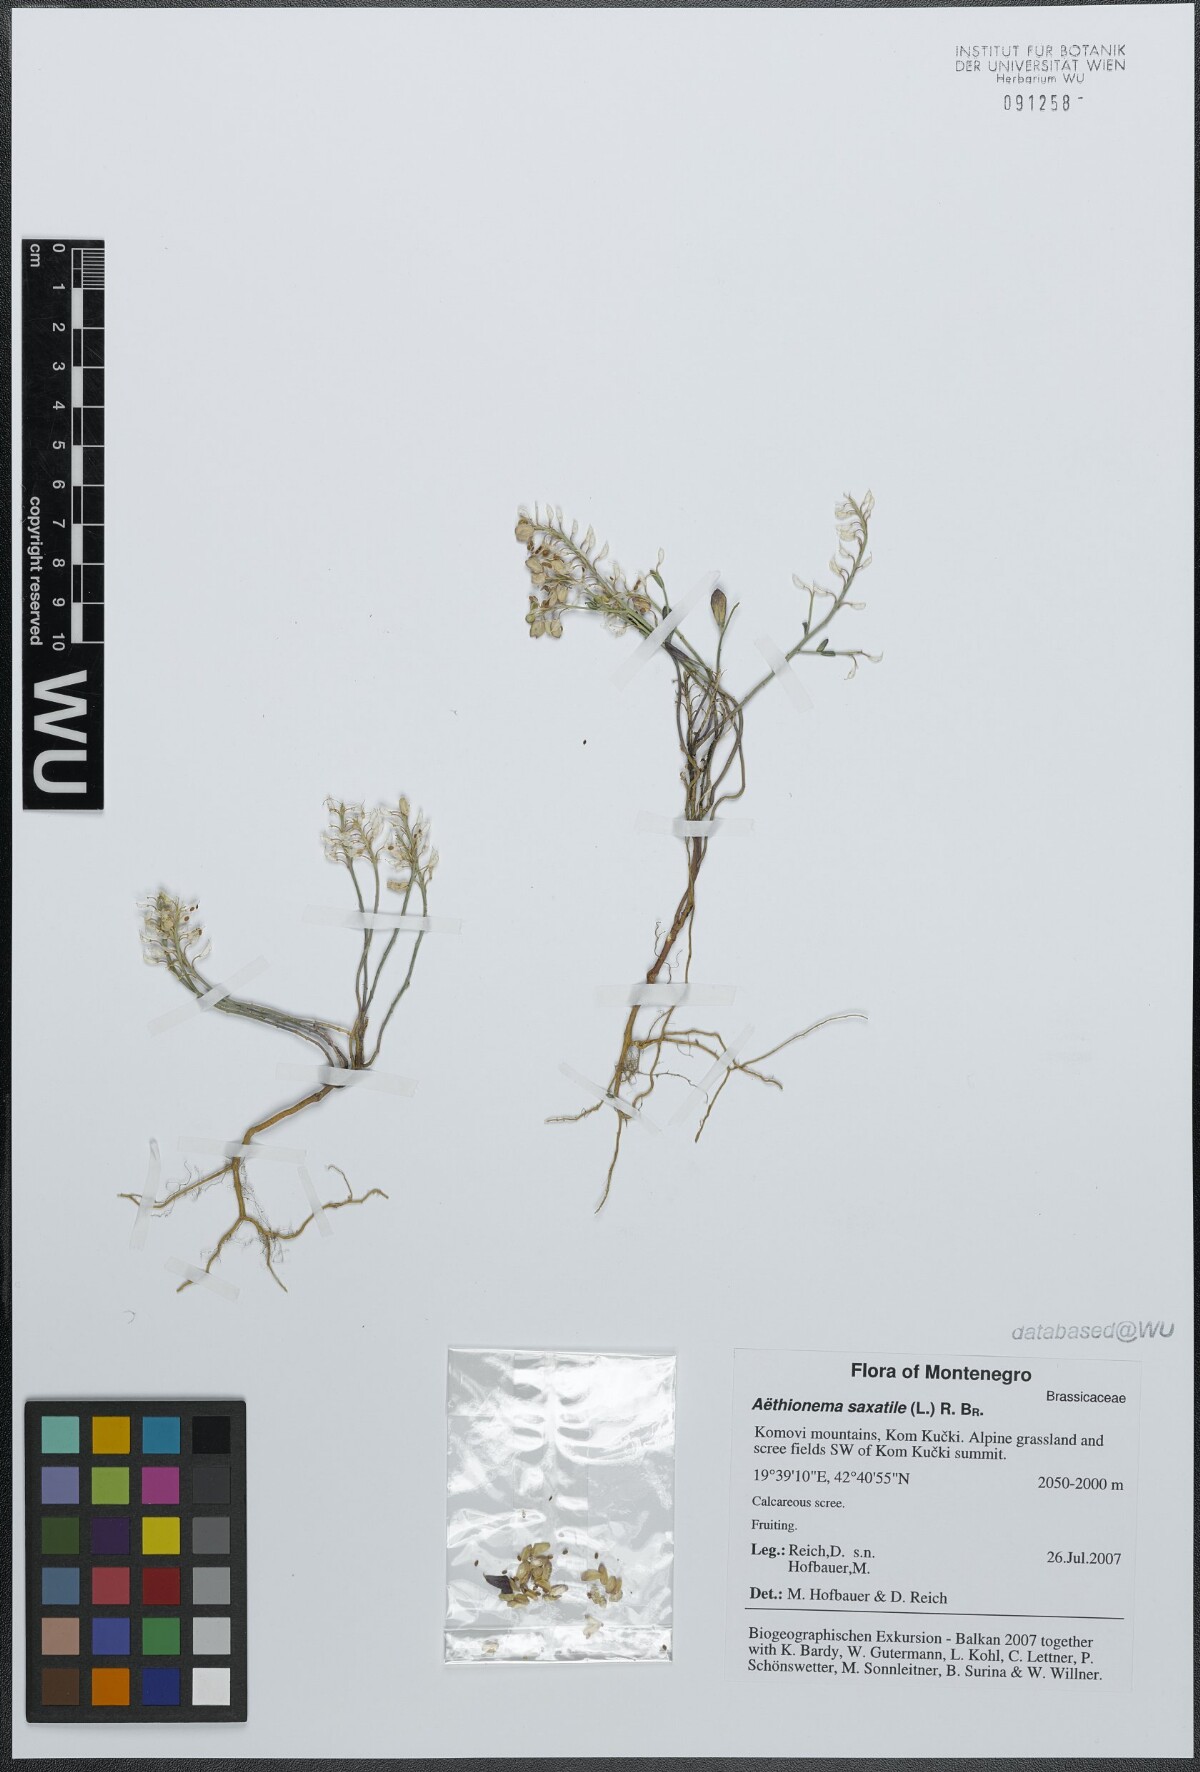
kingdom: Plantae
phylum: Tracheophyta
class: Magnoliopsida
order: Brassicales
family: Brassicaceae
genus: Aethionema
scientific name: Aethionema saxatile
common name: Burnt candytuft
